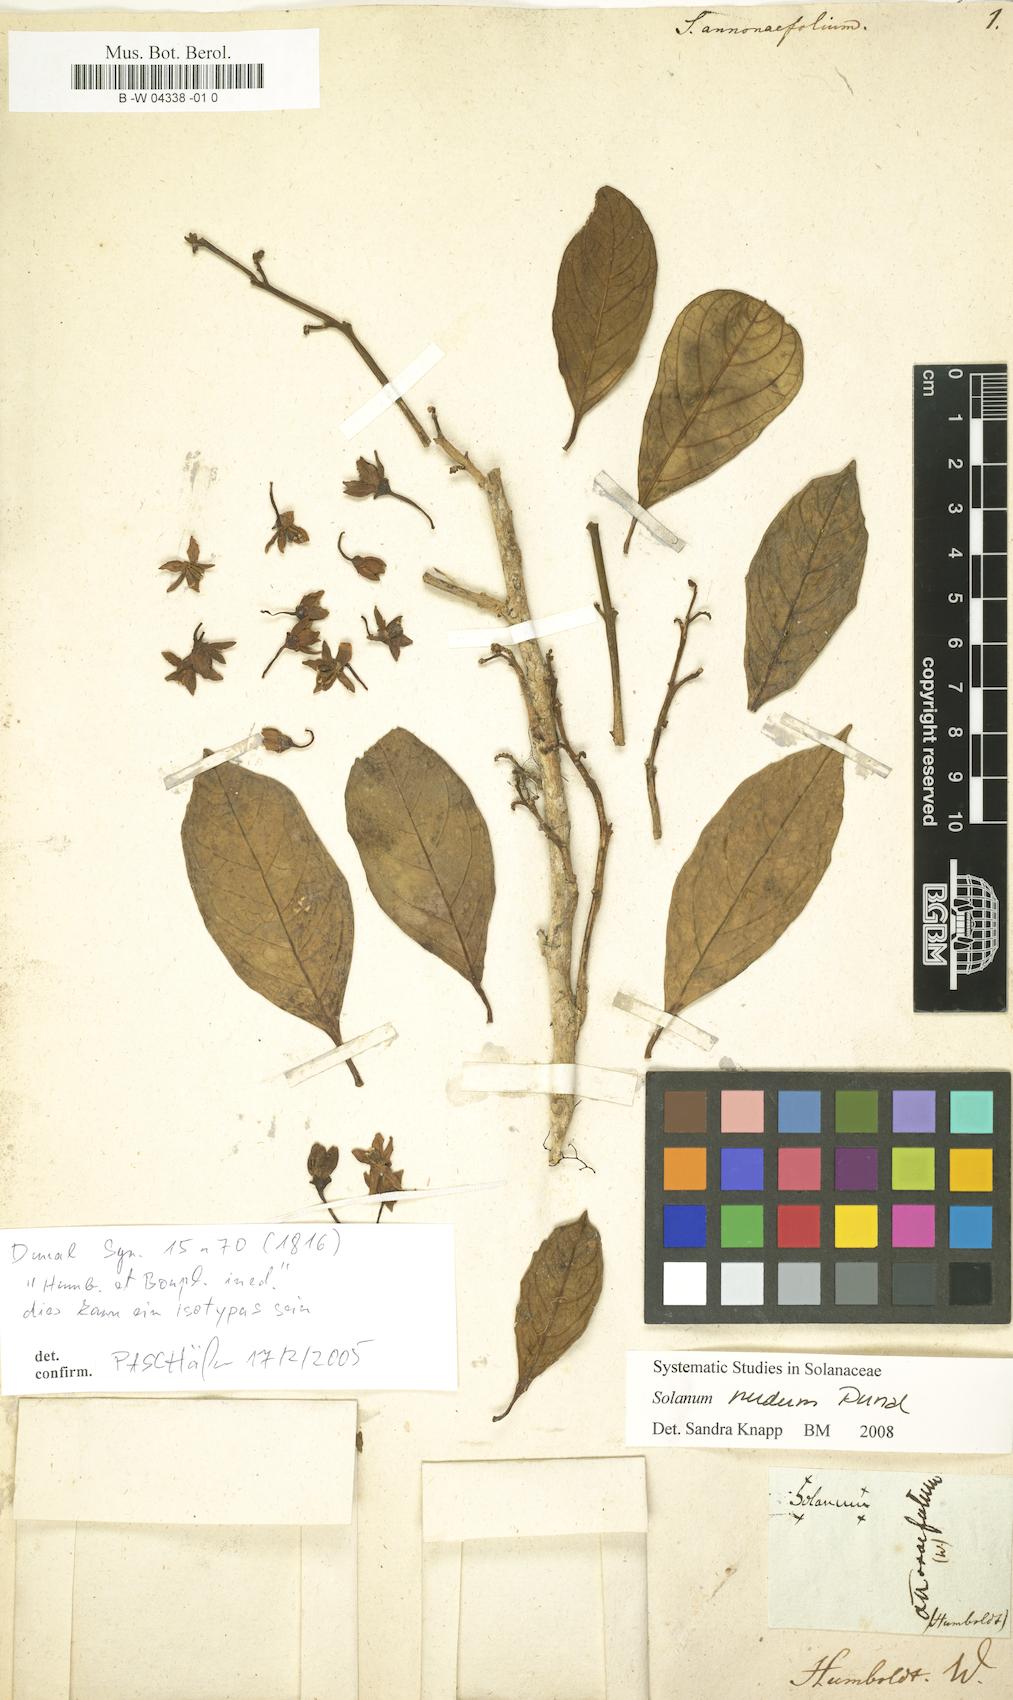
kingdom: Plantae
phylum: Tracheophyta
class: Magnoliopsida
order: Solanales
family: Solanaceae
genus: Solanum
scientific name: Solanum nudum
